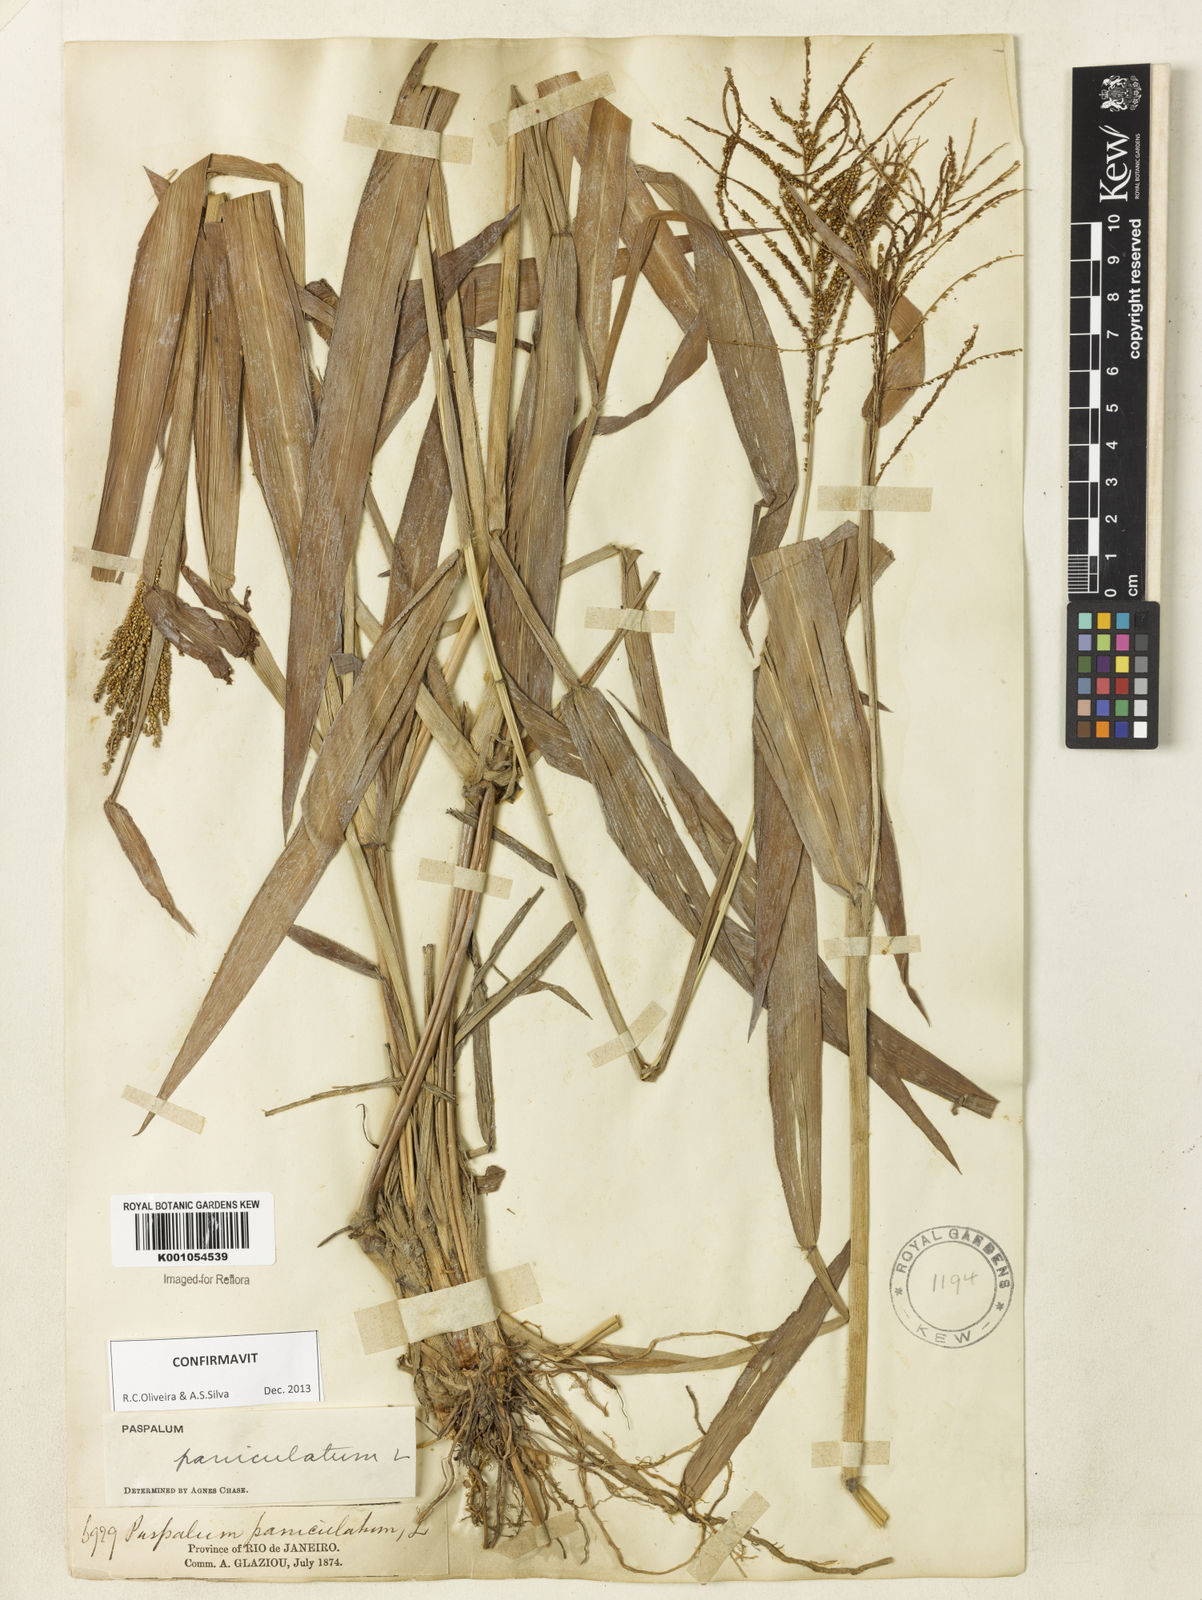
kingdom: Plantae
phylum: Tracheophyta
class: Liliopsida
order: Poales
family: Poaceae
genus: Paspalum
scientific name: Paspalum paniculatum
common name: Arrocillo
